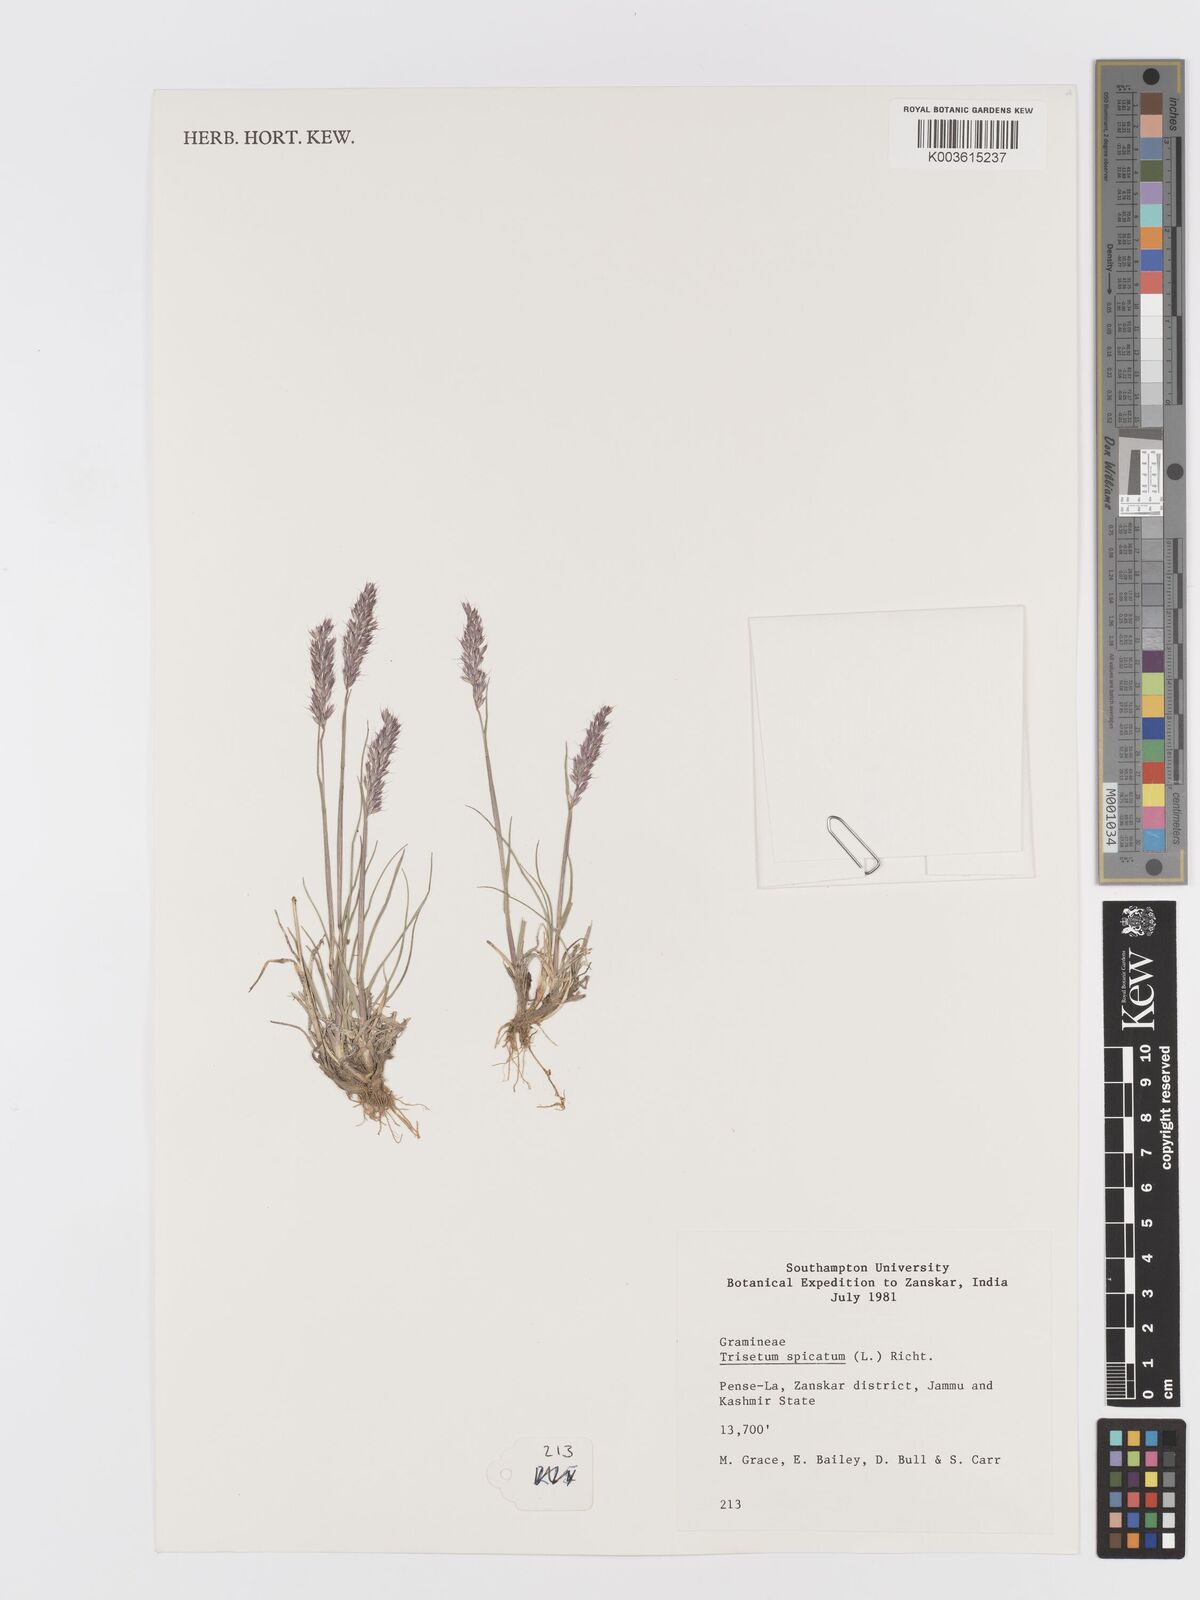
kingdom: Plantae
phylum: Tracheophyta
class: Liliopsida
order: Poales
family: Poaceae
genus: Koeleria
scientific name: Koeleria spicata
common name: Mountain trisetum
